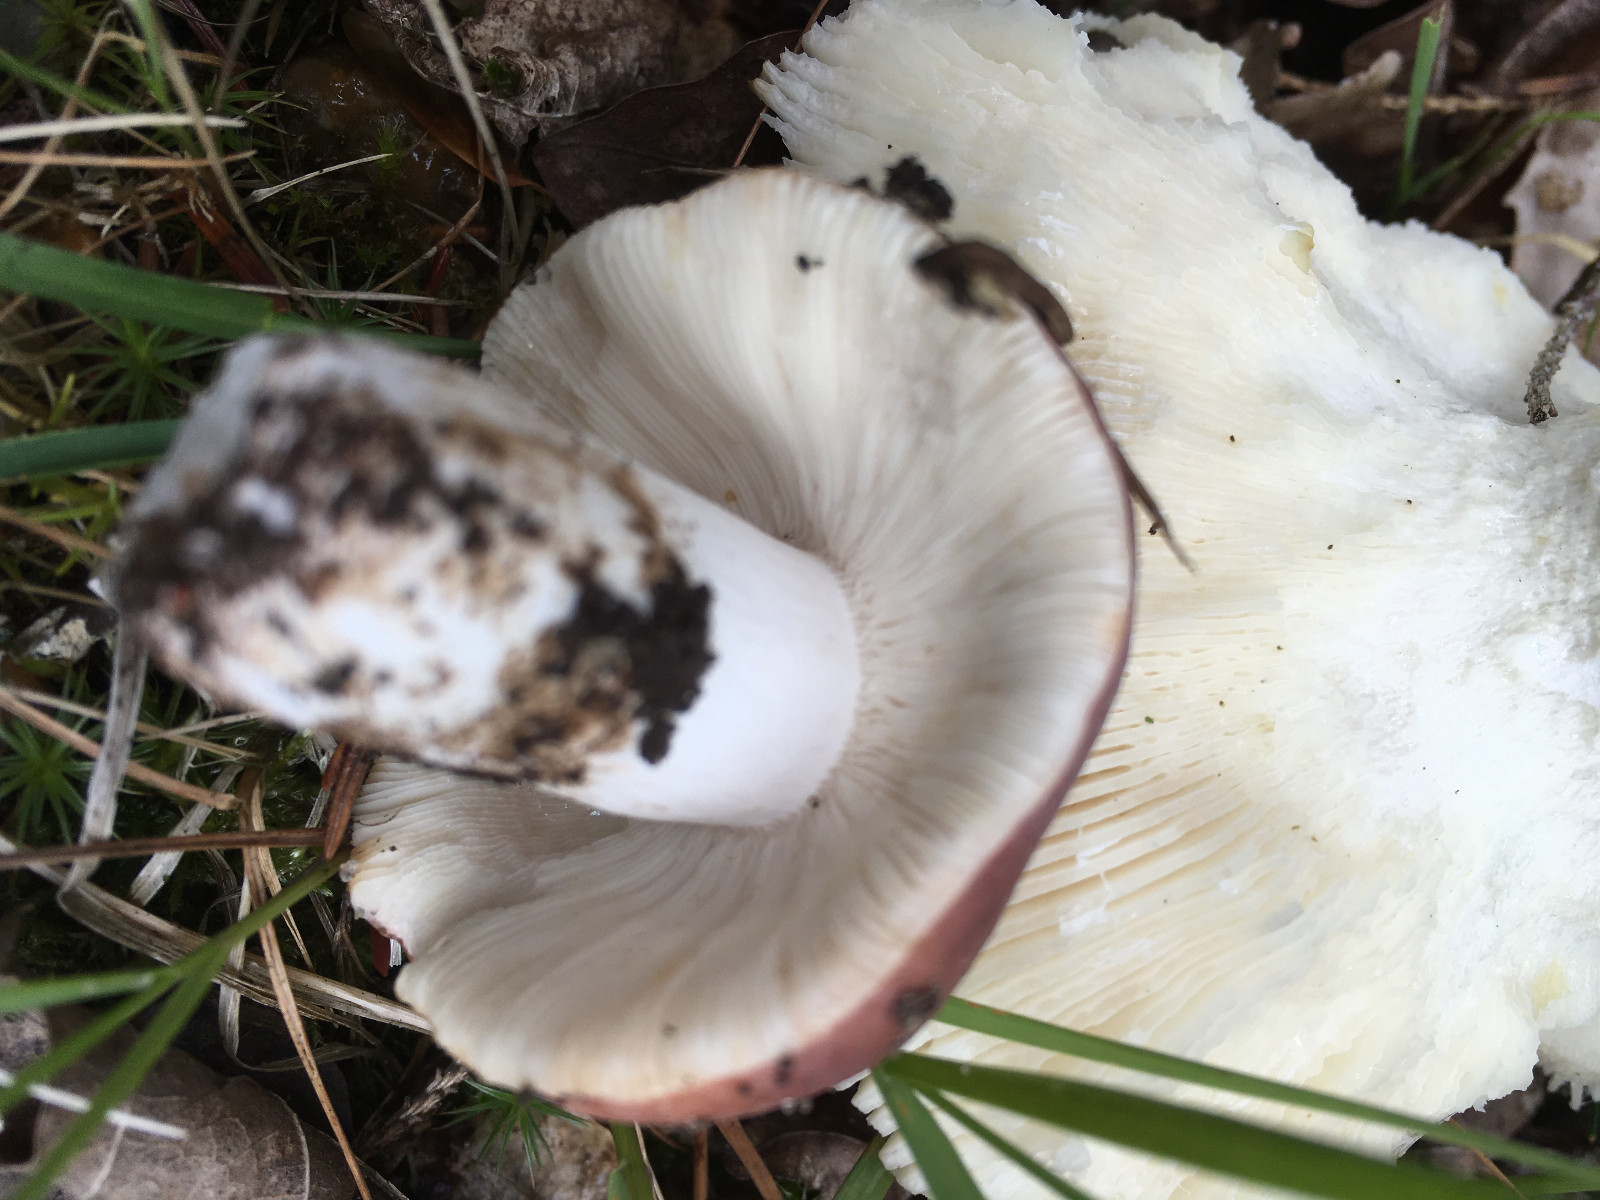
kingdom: Fungi
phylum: Basidiomycota
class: Agaricomycetes
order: Russulales
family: Russulaceae
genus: Russula
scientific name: Russula vesca
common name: spiselig skørhat
